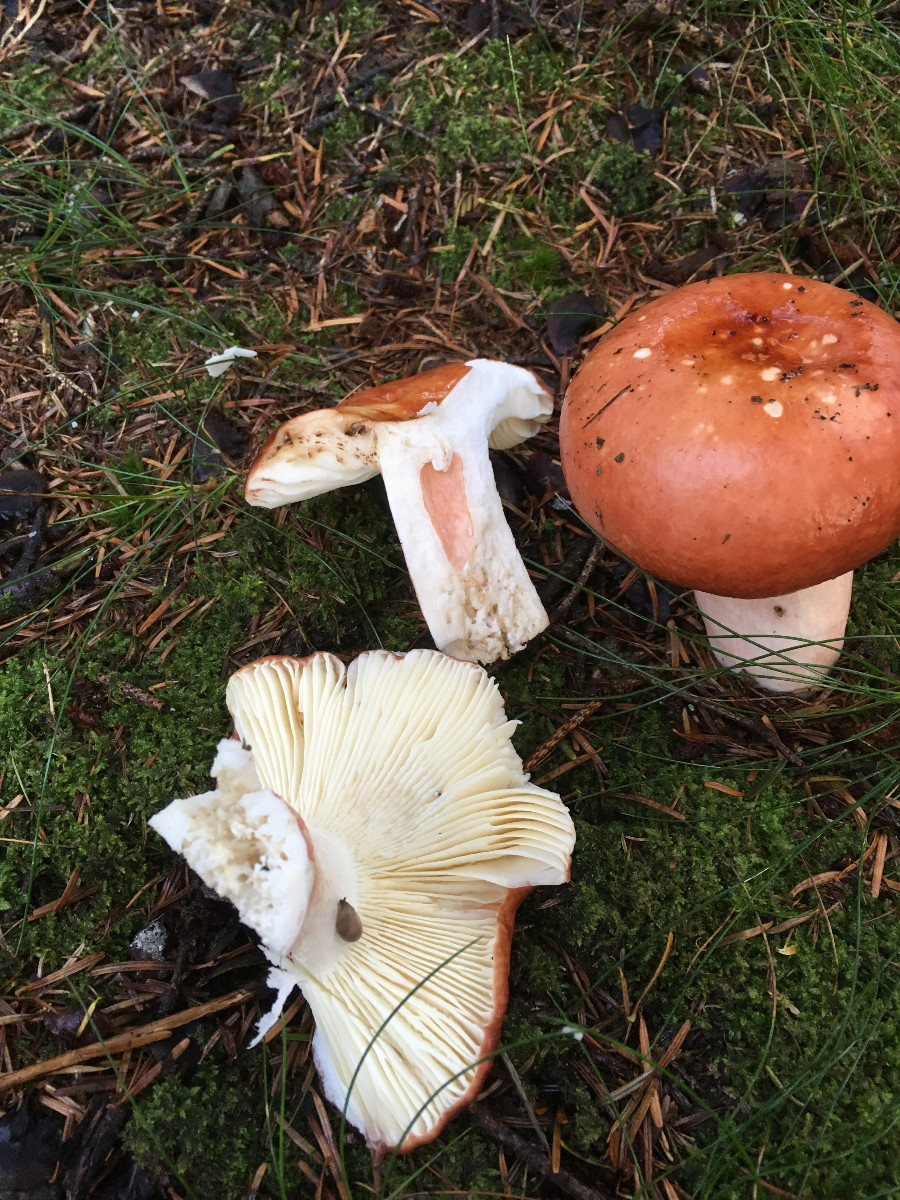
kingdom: Fungi
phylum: Basidiomycota
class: Agaricomycetes
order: Russulales
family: Russulaceae
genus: Russula
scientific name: Russula paludosa
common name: prægtig skørhat
